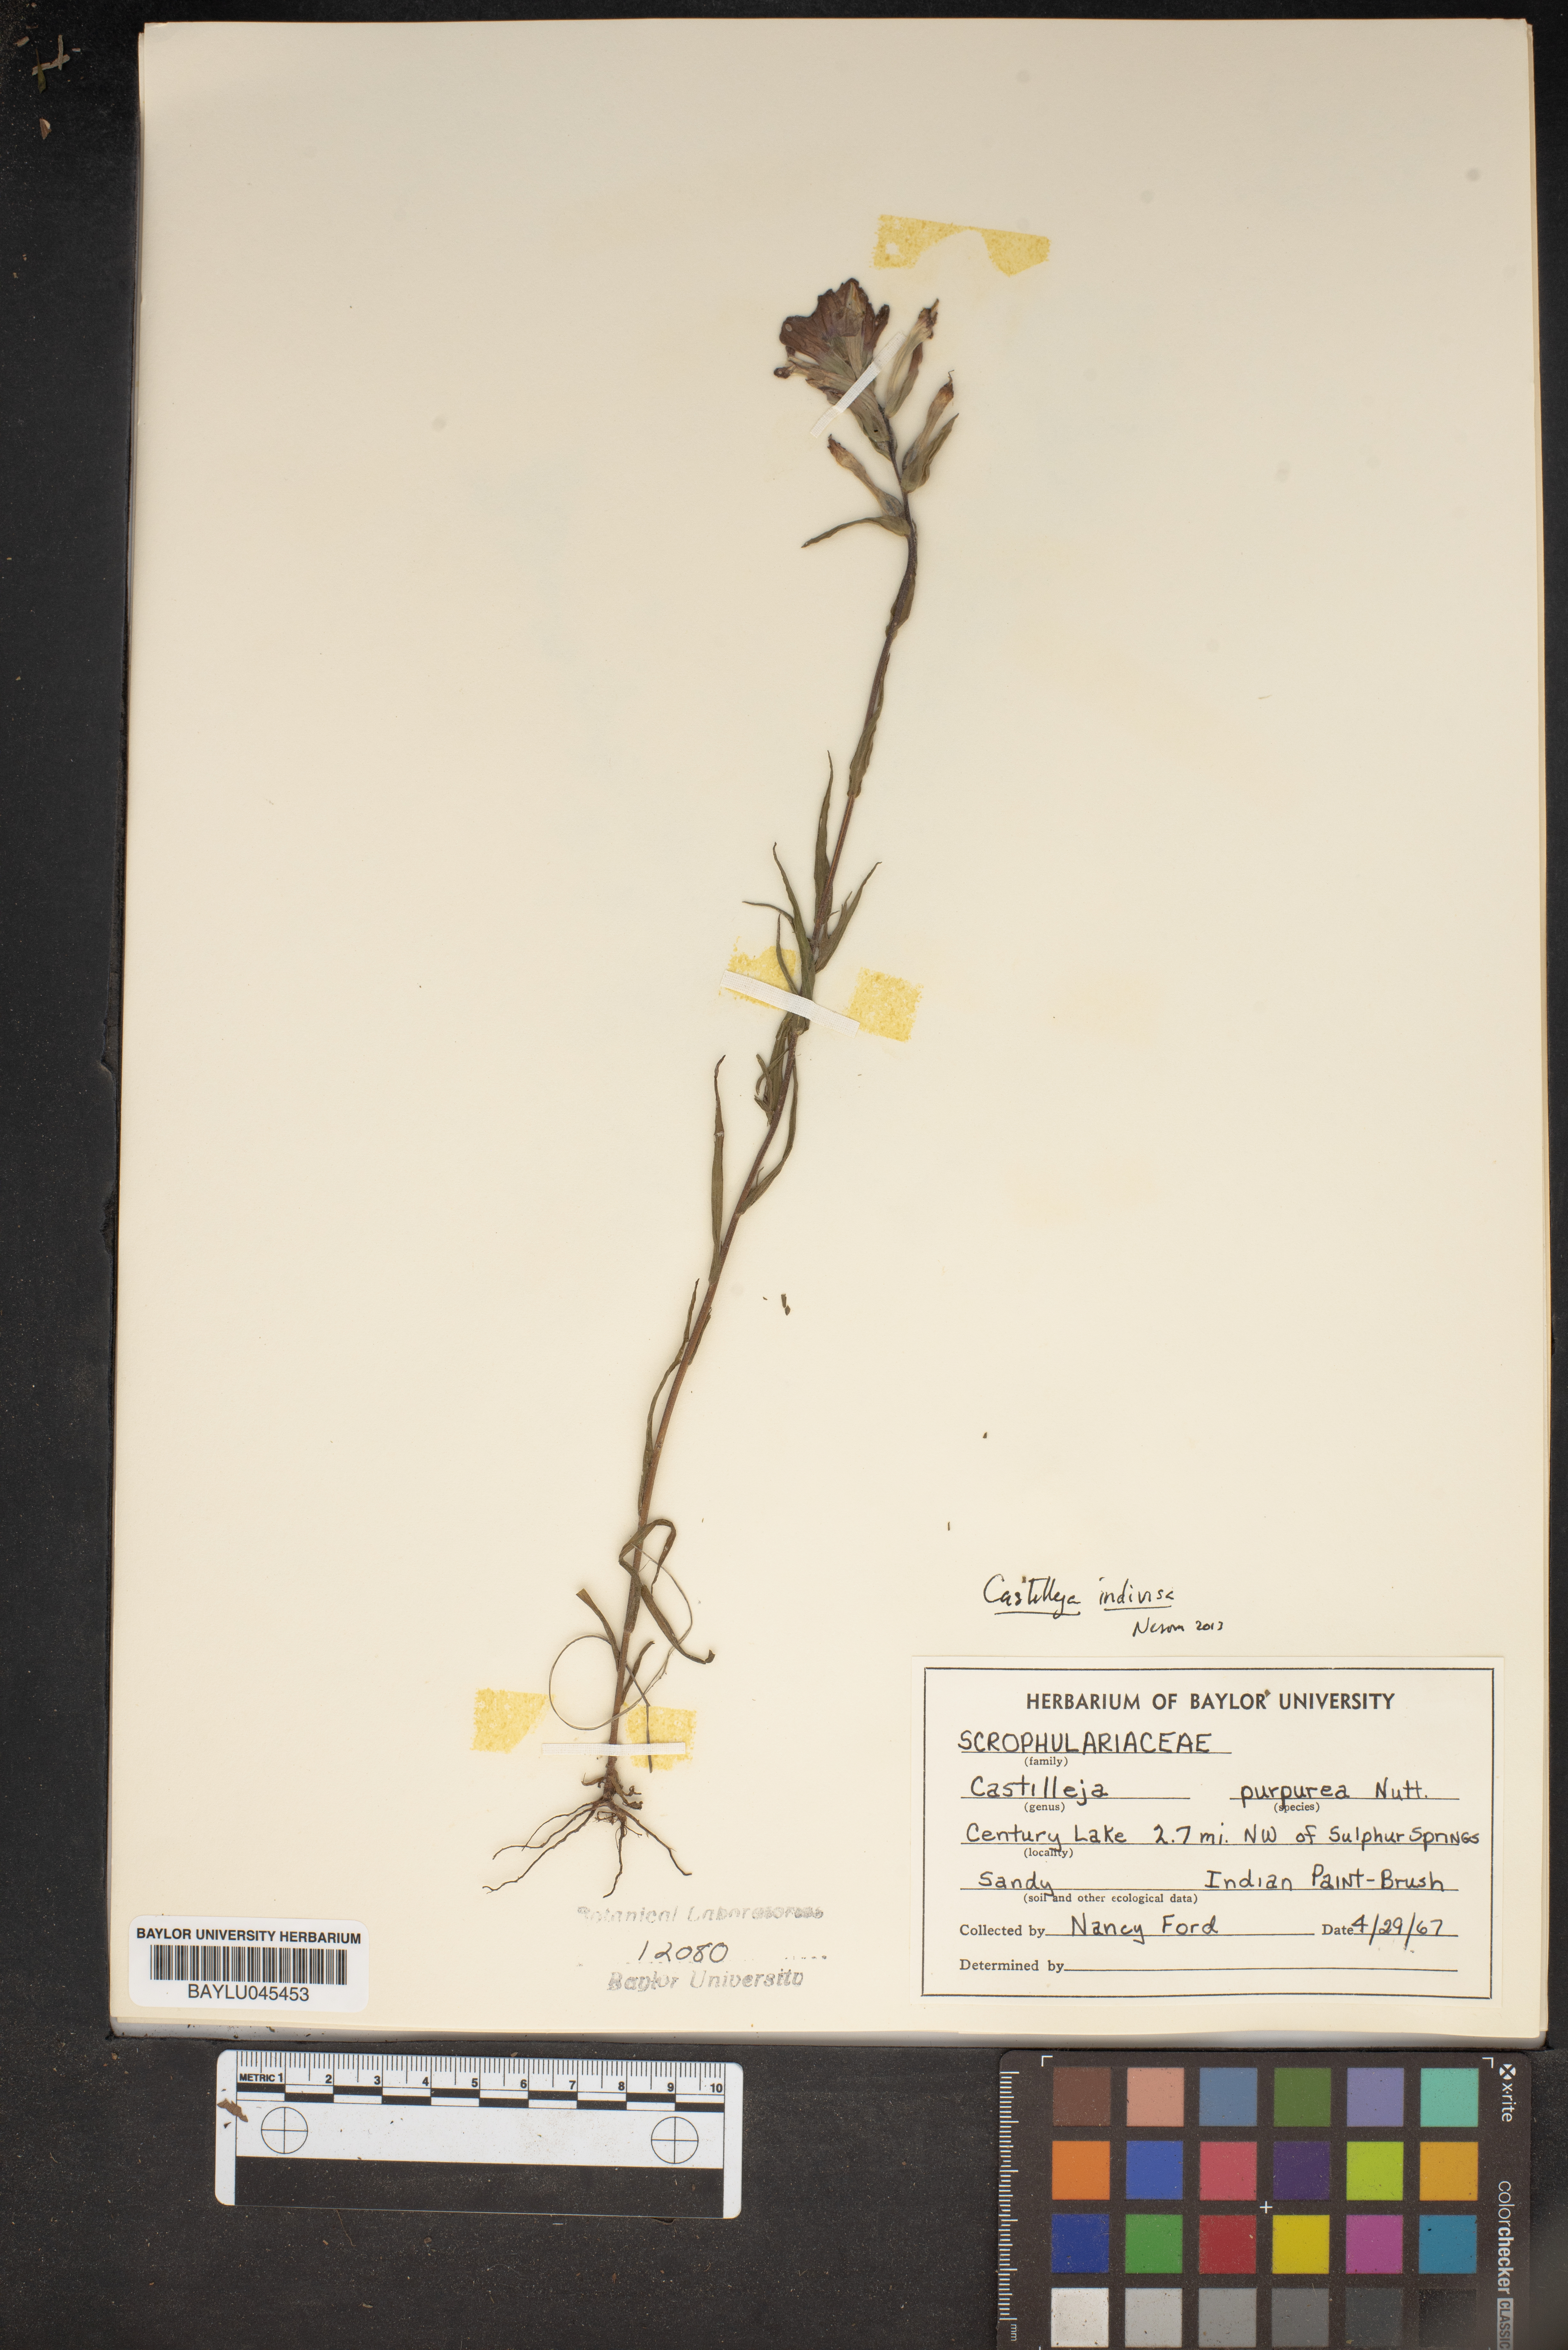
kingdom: Plantae
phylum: Tracheophyta
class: Magnoliopsida
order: Lamiales
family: Orobanchaceae
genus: Castilleja
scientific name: Castilleja purpurea
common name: Plains paintbrush
